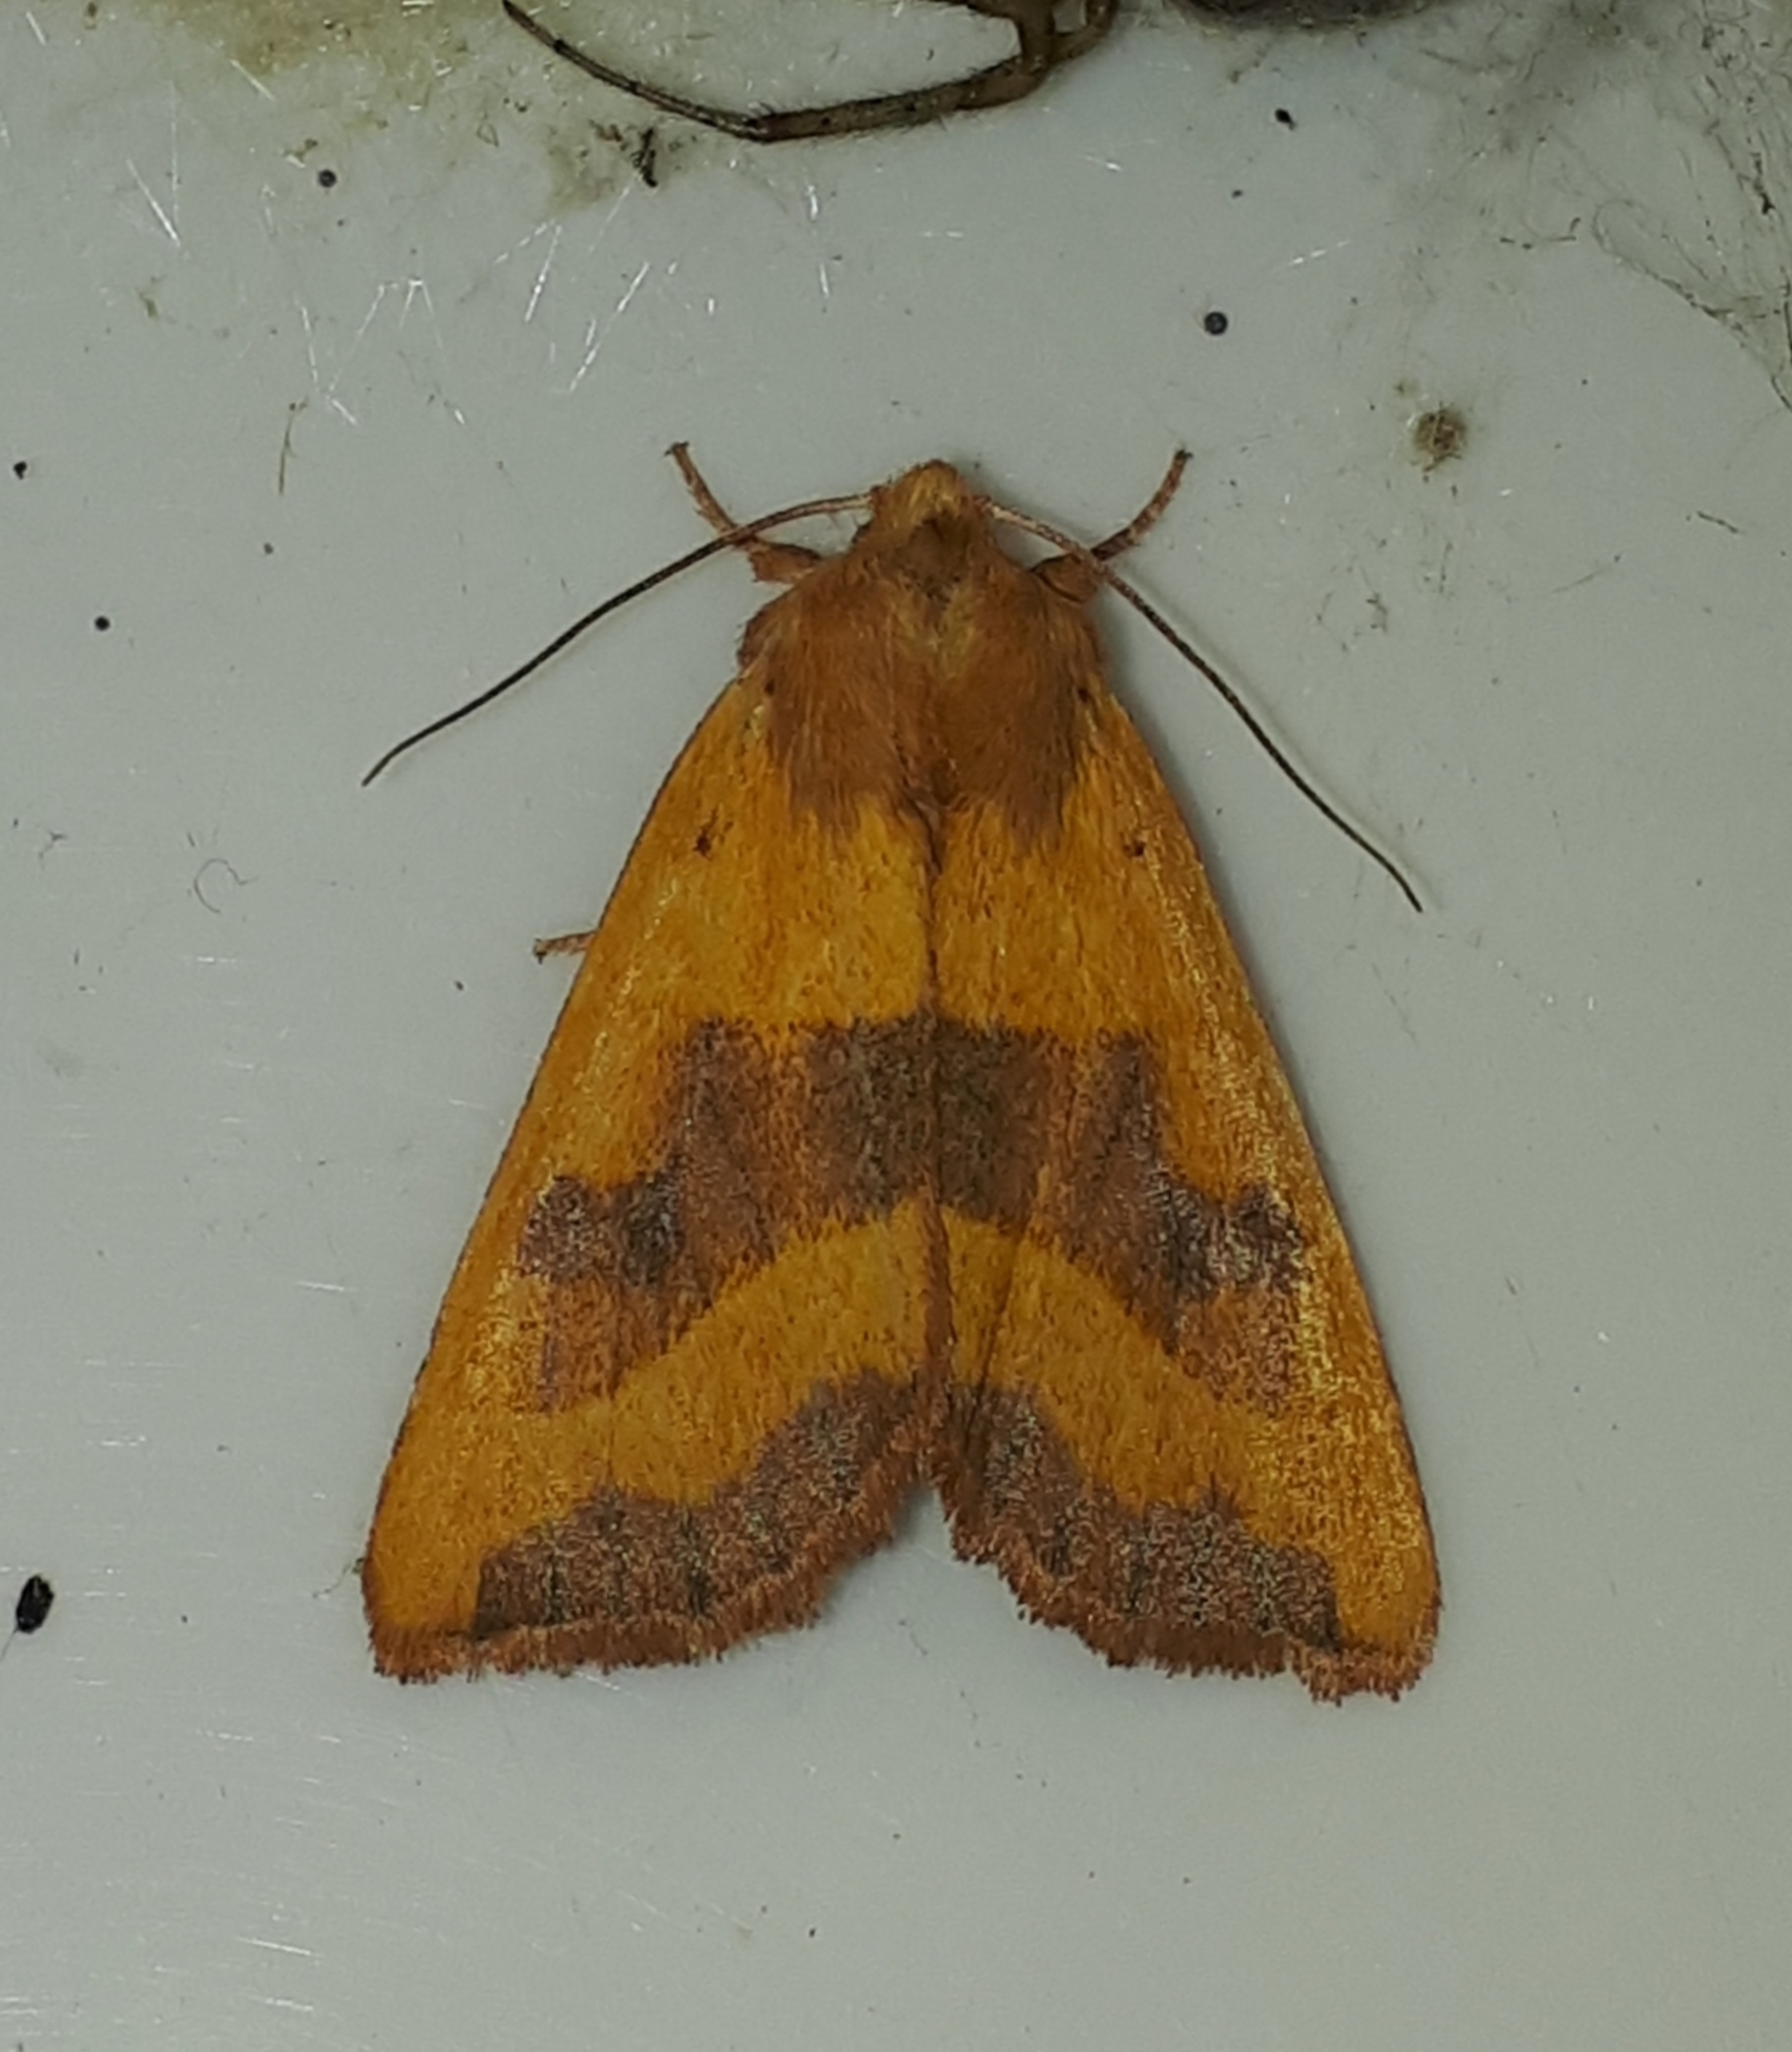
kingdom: Animalia
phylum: Arthropoda
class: Insecta
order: Lepidoptera
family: Noctuidae
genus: Atethmia
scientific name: Atethmia centrago
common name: Aske-septemberugle
